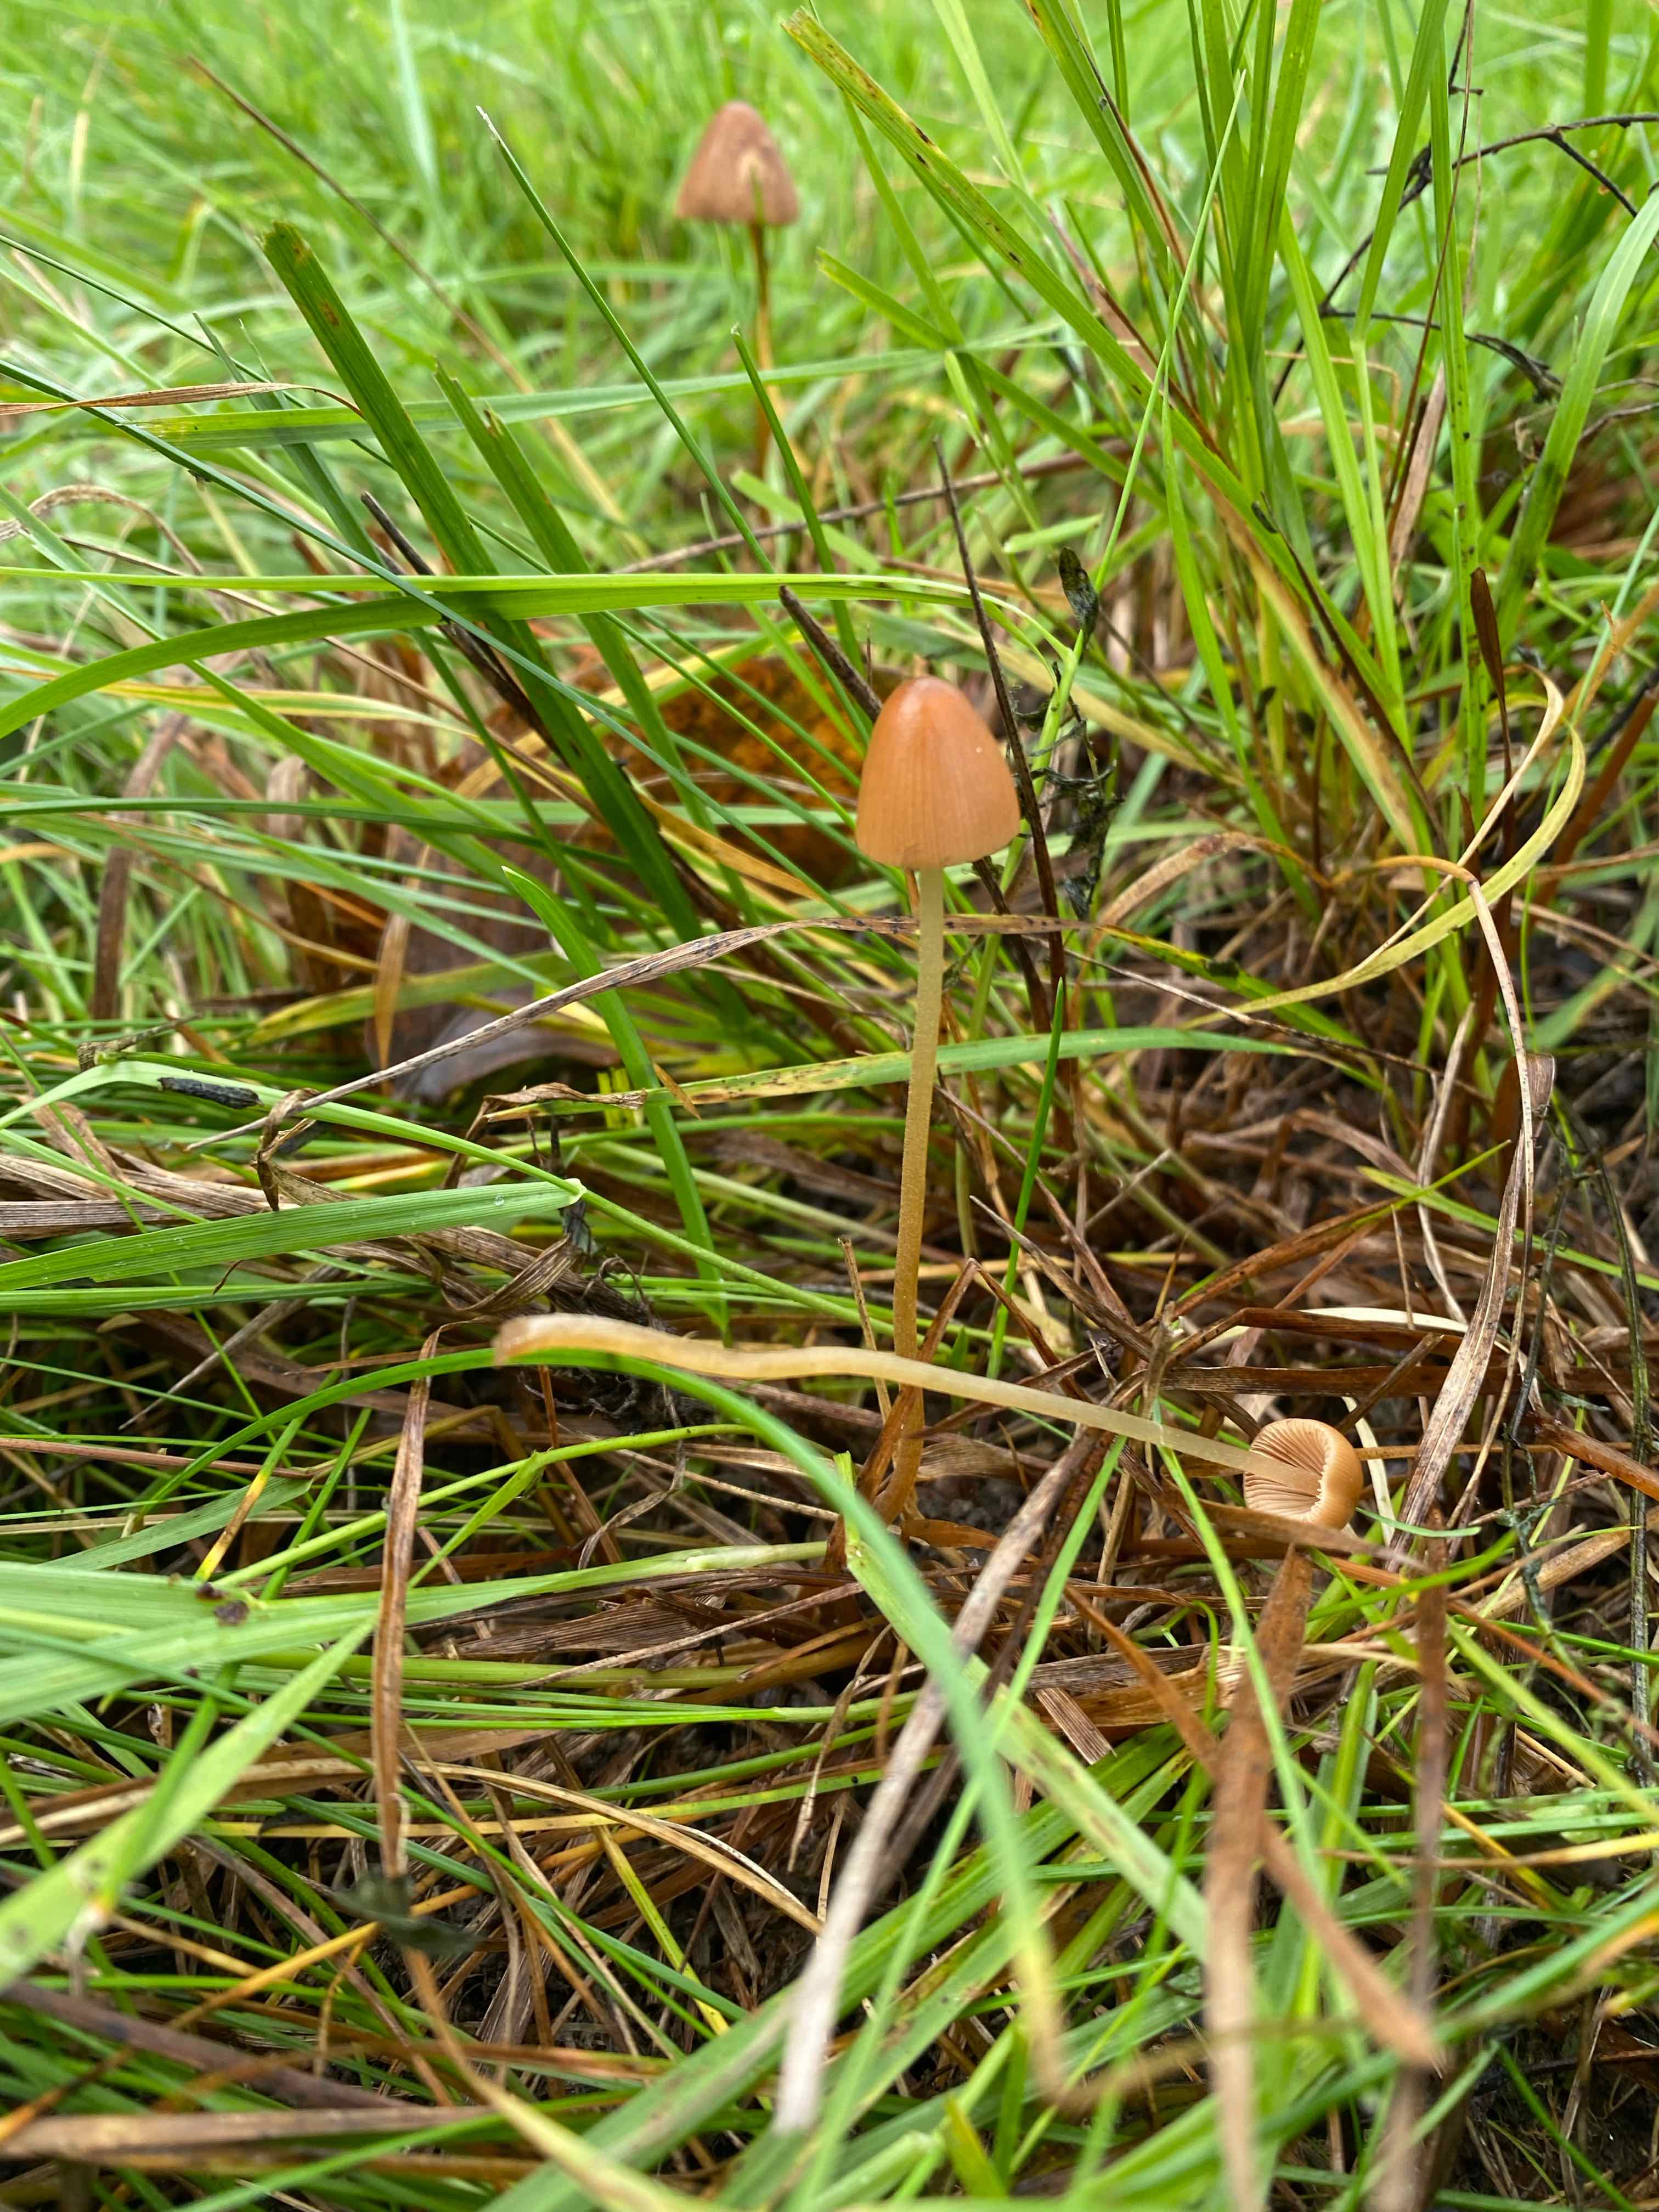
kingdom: Fungi
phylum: Basidiomycota
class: Agaricomycetes
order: Agaricales
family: Bolbitiaceae
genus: Conocybe
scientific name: Conocybe
